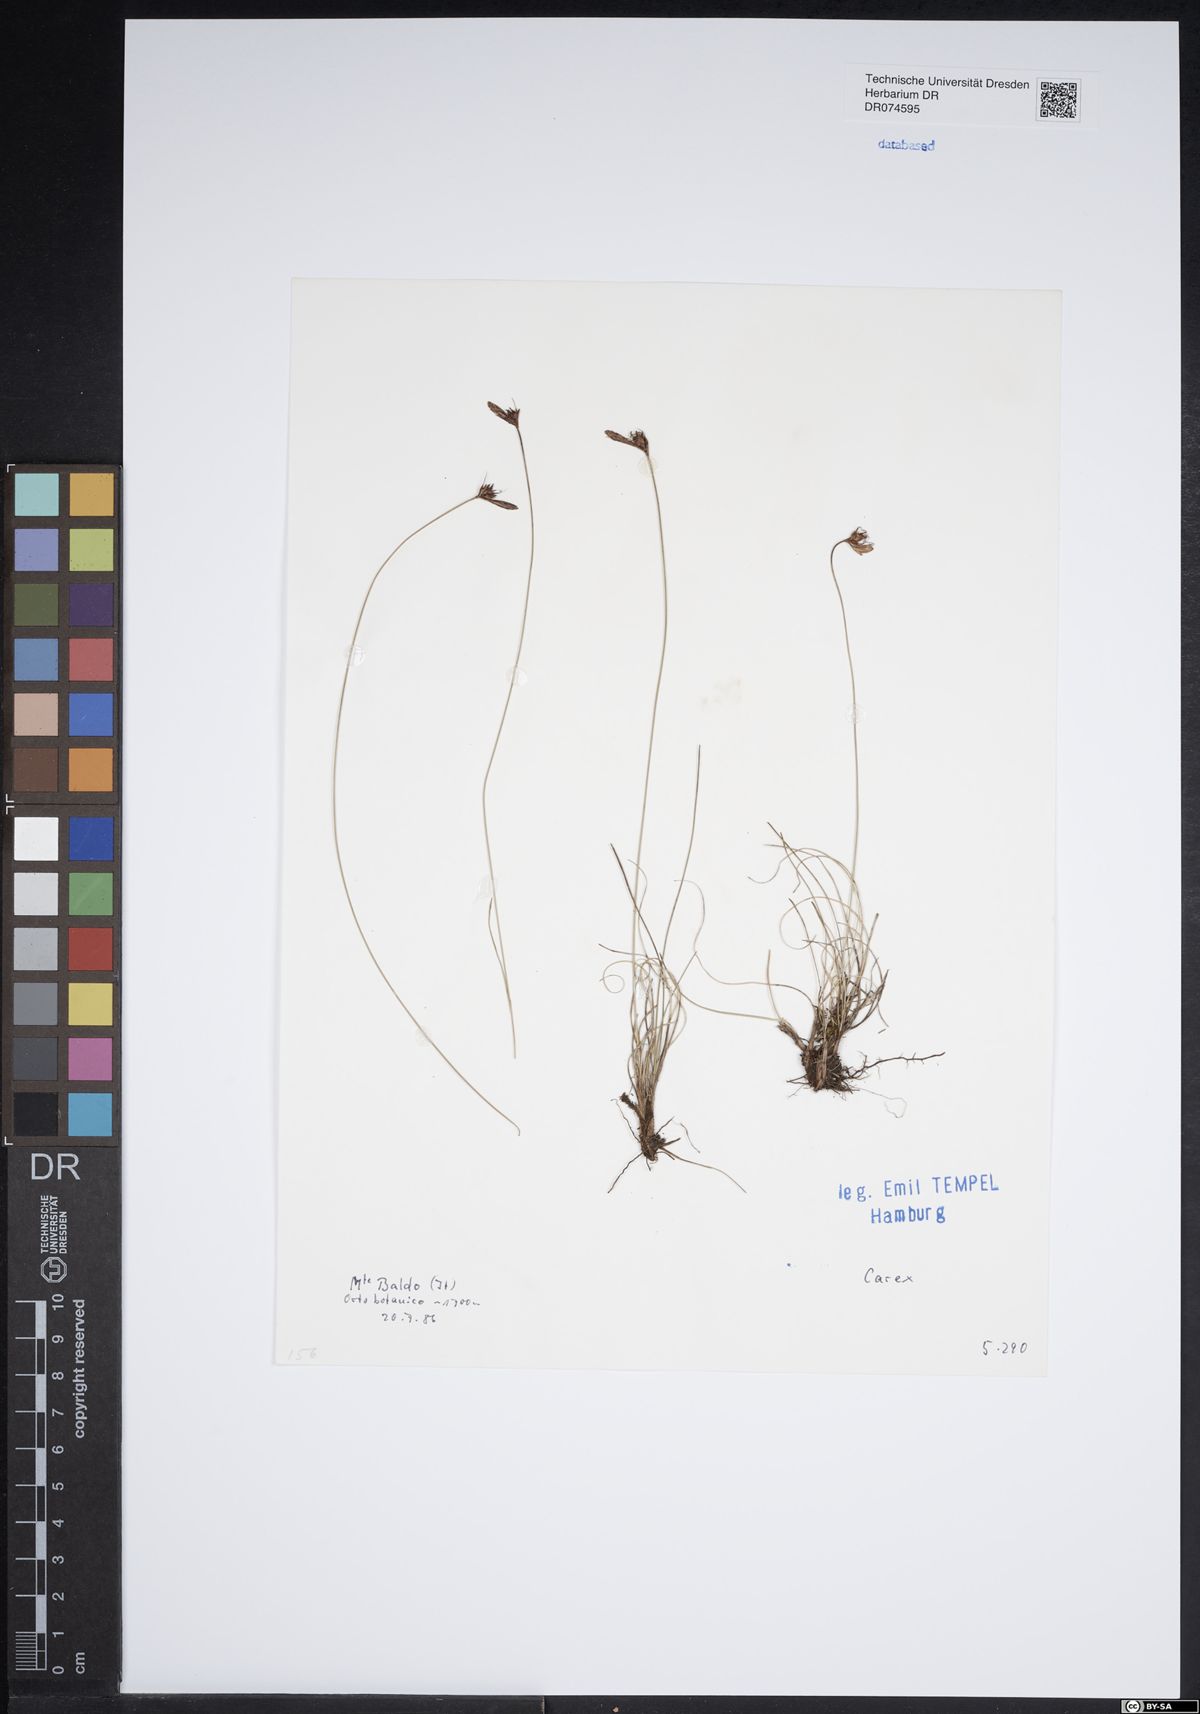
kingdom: Plantae
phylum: Tracheophyta
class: Liliopsida
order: Poales
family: Cyperaceae
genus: Carex
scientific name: Carex
